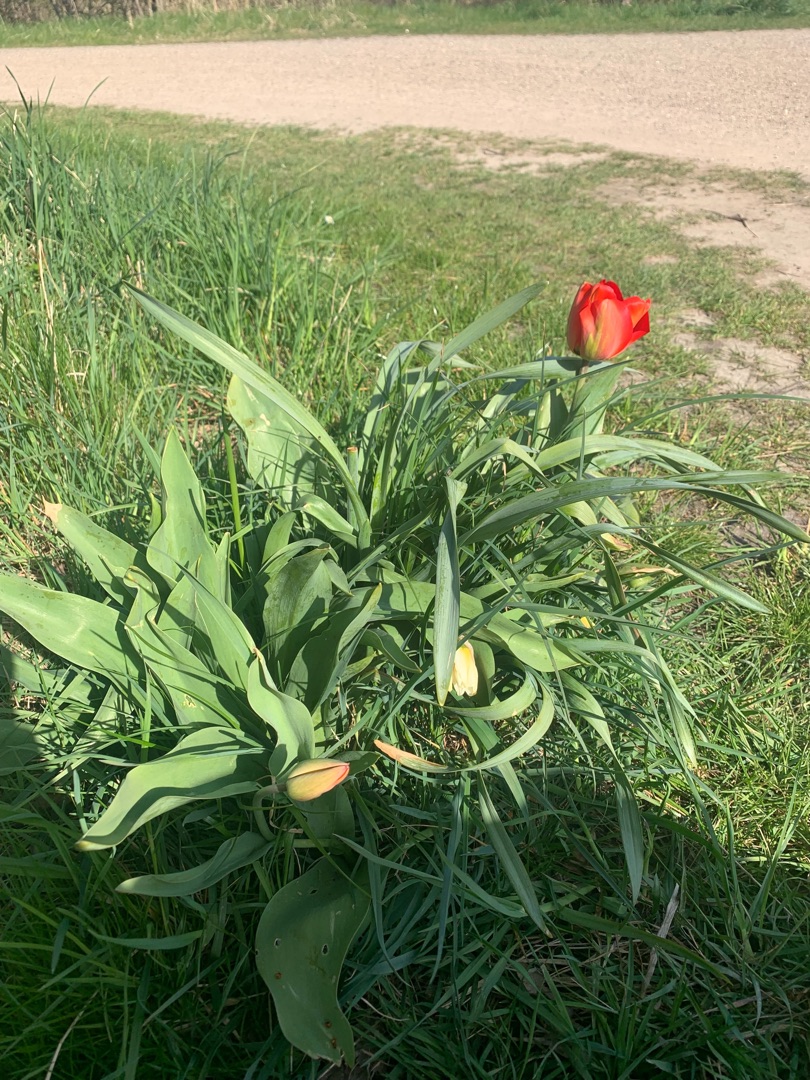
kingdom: Plantae
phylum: Tracheophyta
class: Liliopsida
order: Liliales
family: Liliaceae
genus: Tulipa
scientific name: Tulipa gesneriana
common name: Have-tulipan
